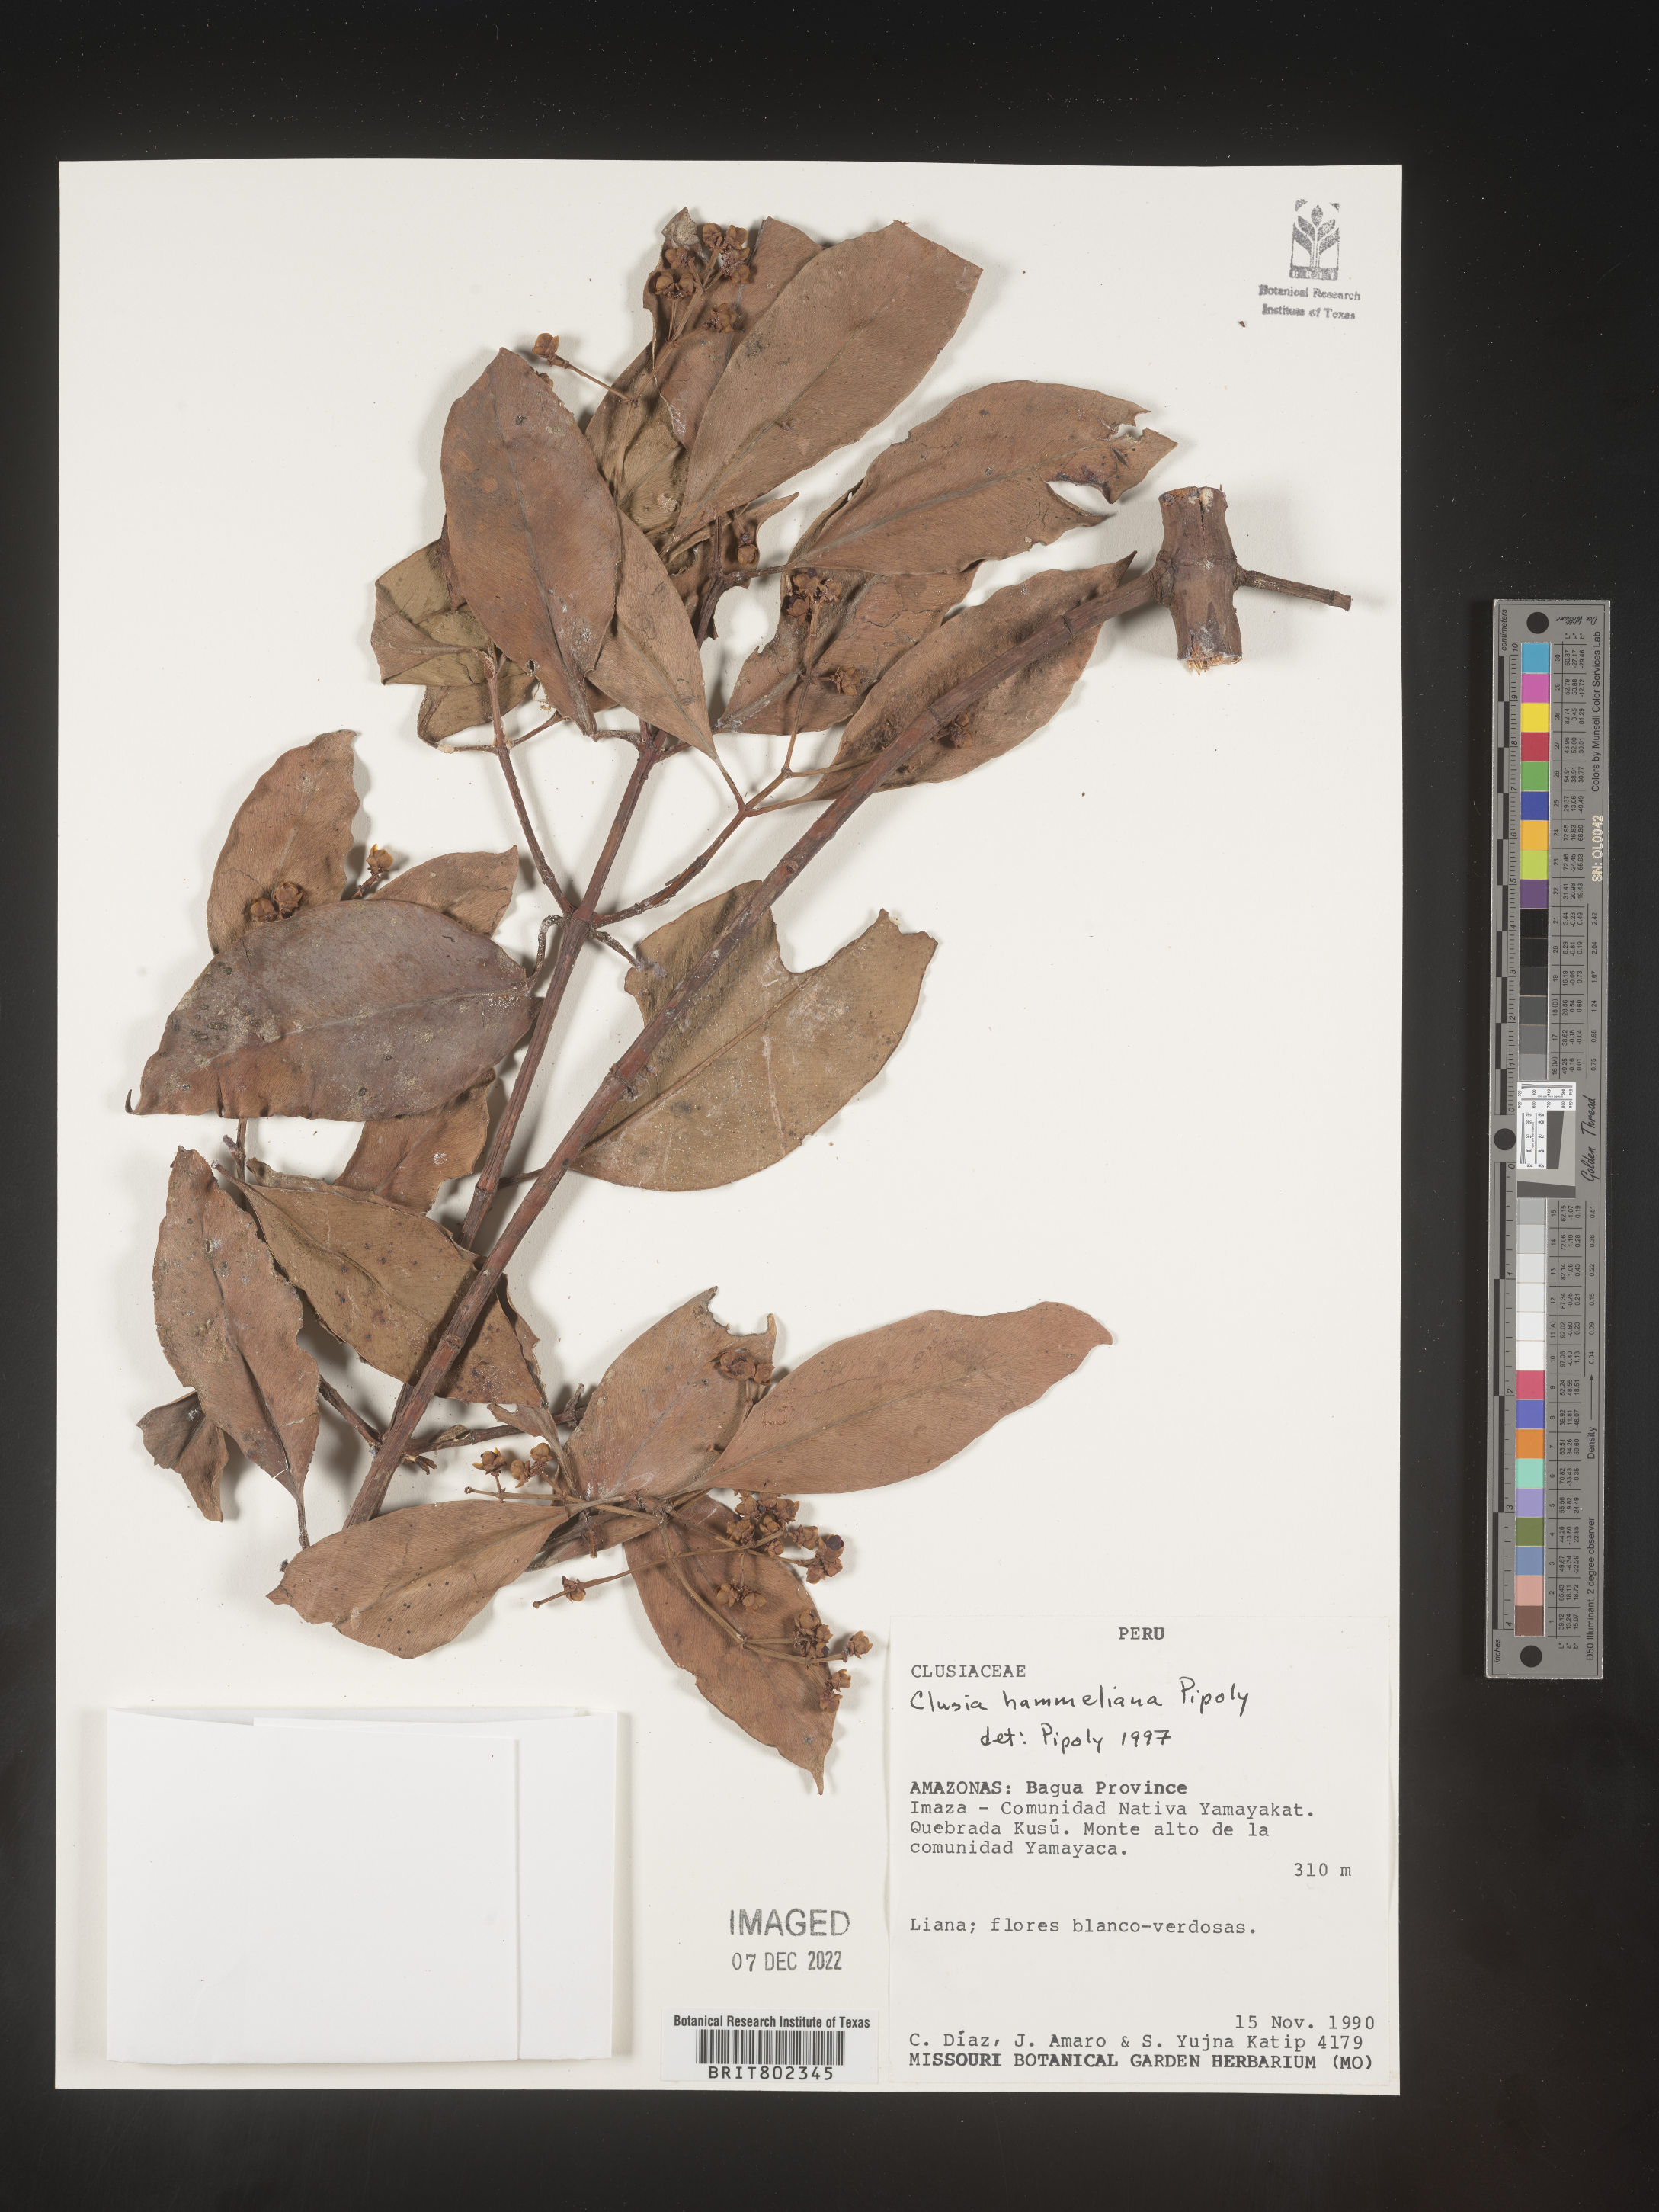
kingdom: Plantae
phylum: Tracheophyta
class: Magnoliopsida
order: Malpighiales
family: Clusiaceae
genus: Clusia
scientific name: Clusia hammeliana
